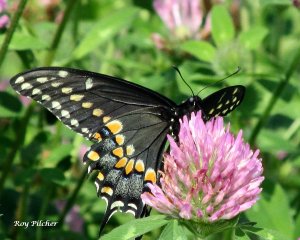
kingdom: Animalia
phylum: Arthropoda
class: Insecta
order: Lepidoptera
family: Papilionidae
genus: Papilio
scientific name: Papilio polyxenes
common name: Black Swallowtail
